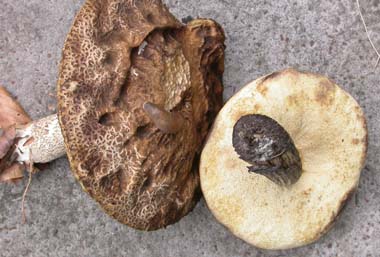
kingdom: Fungi
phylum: Basidiomycota
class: Agaricomycetes
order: Boletales
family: Boletaceae
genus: Leccinellum
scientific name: Leccinellum pseudoscabrum
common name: avnbøg-skælrørhat
